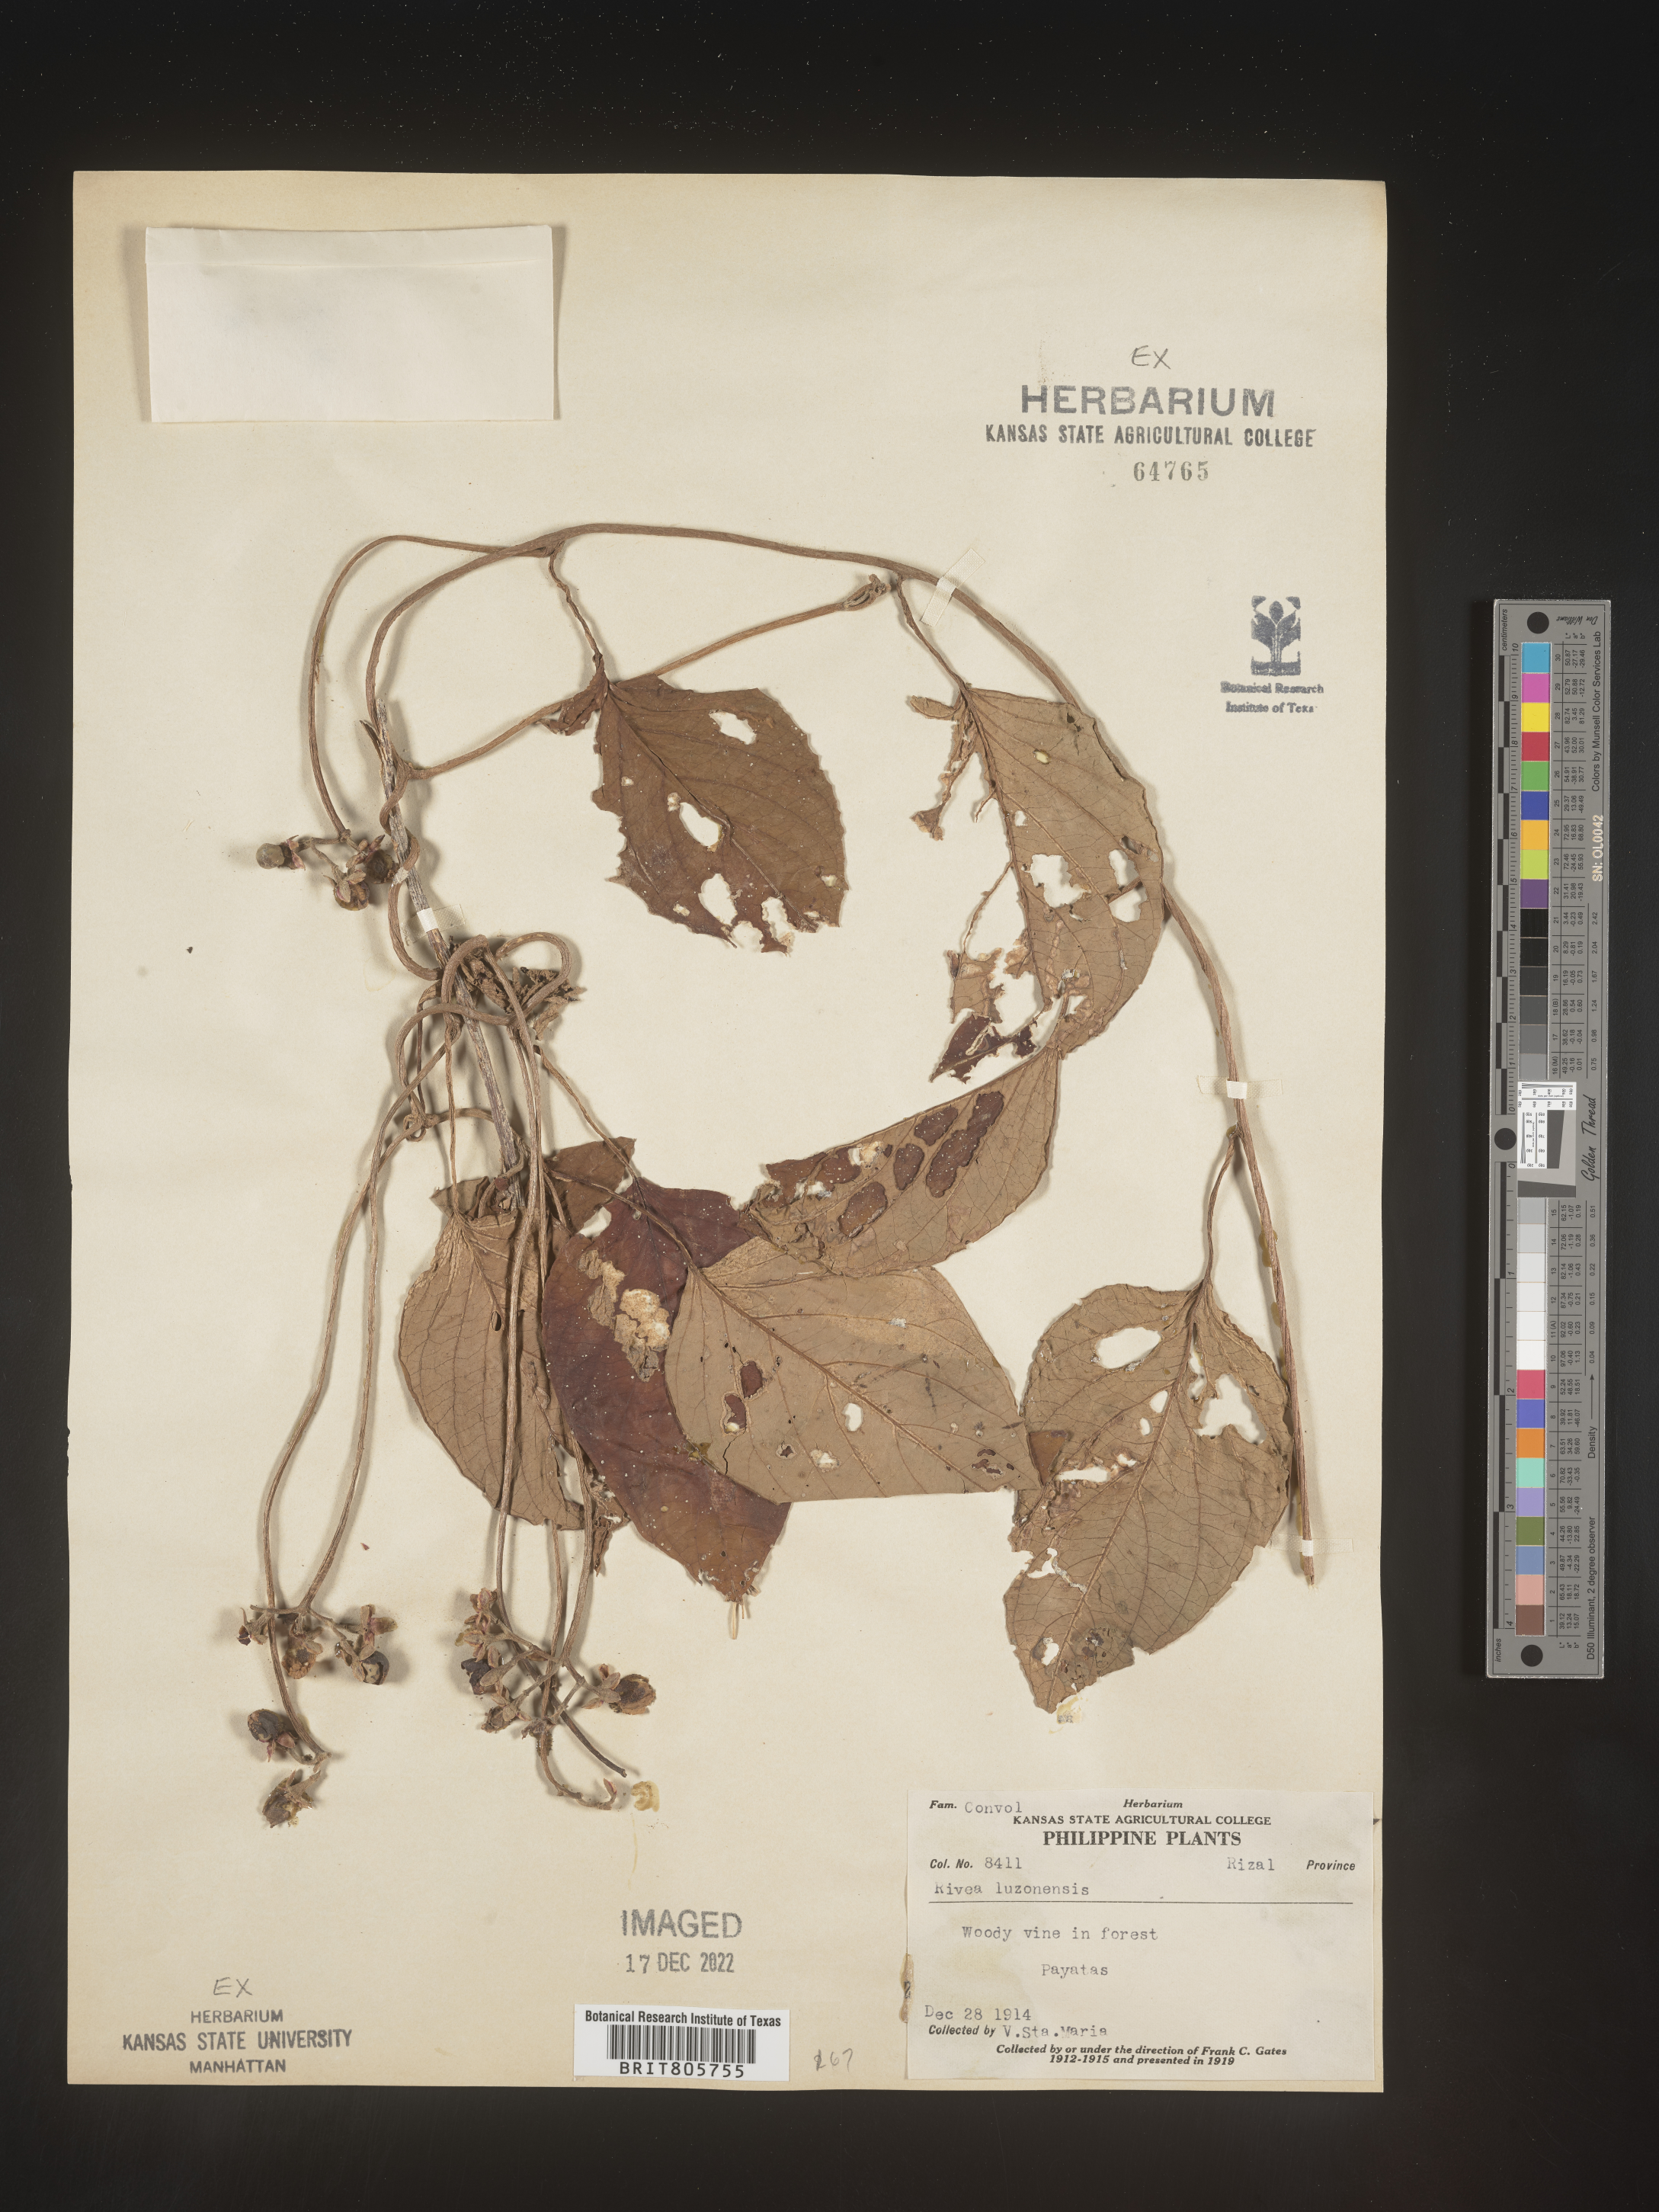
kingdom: Plantae
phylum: Tracheophyta
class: Magnoliopsida
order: Solanales
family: Convolvulaceae
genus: Rivea
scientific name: Rivea
